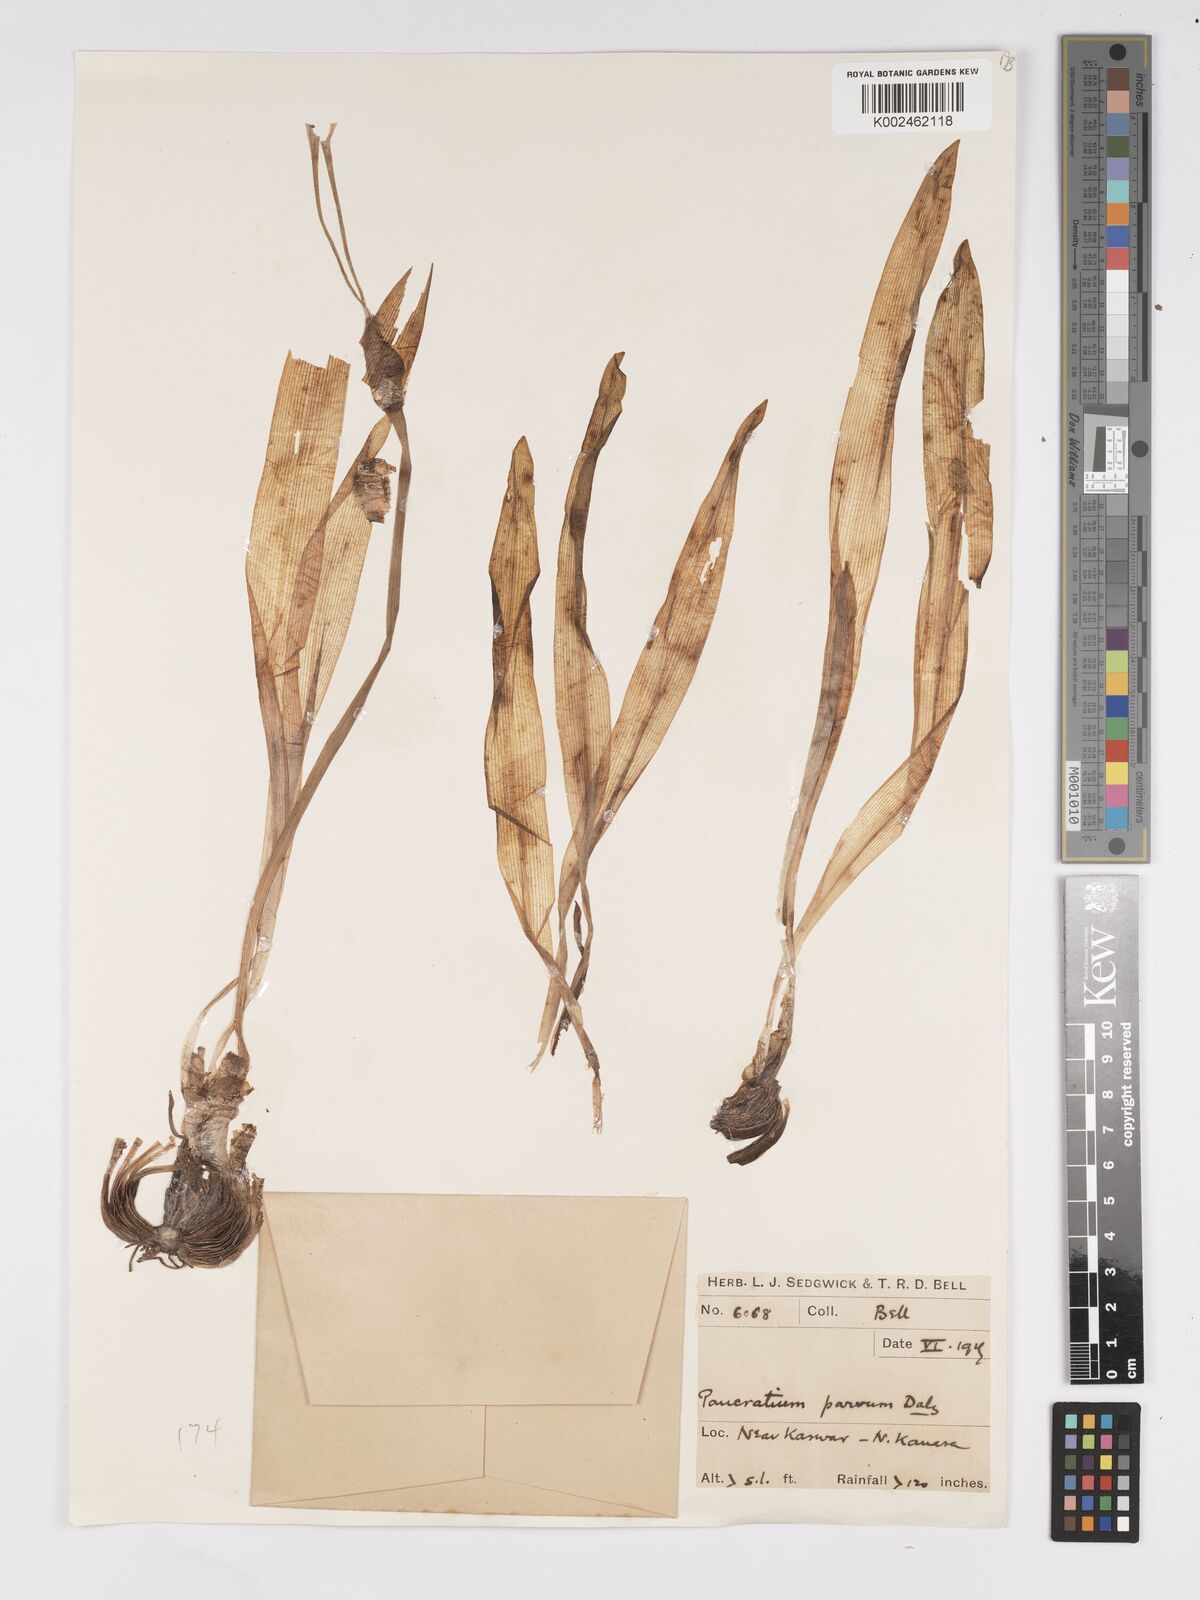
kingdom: Plantae
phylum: Tracheophyta
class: Liliopsida
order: Asparagales
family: Amaryllidaceae
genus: Pancratium
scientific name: Pancratium parvum
